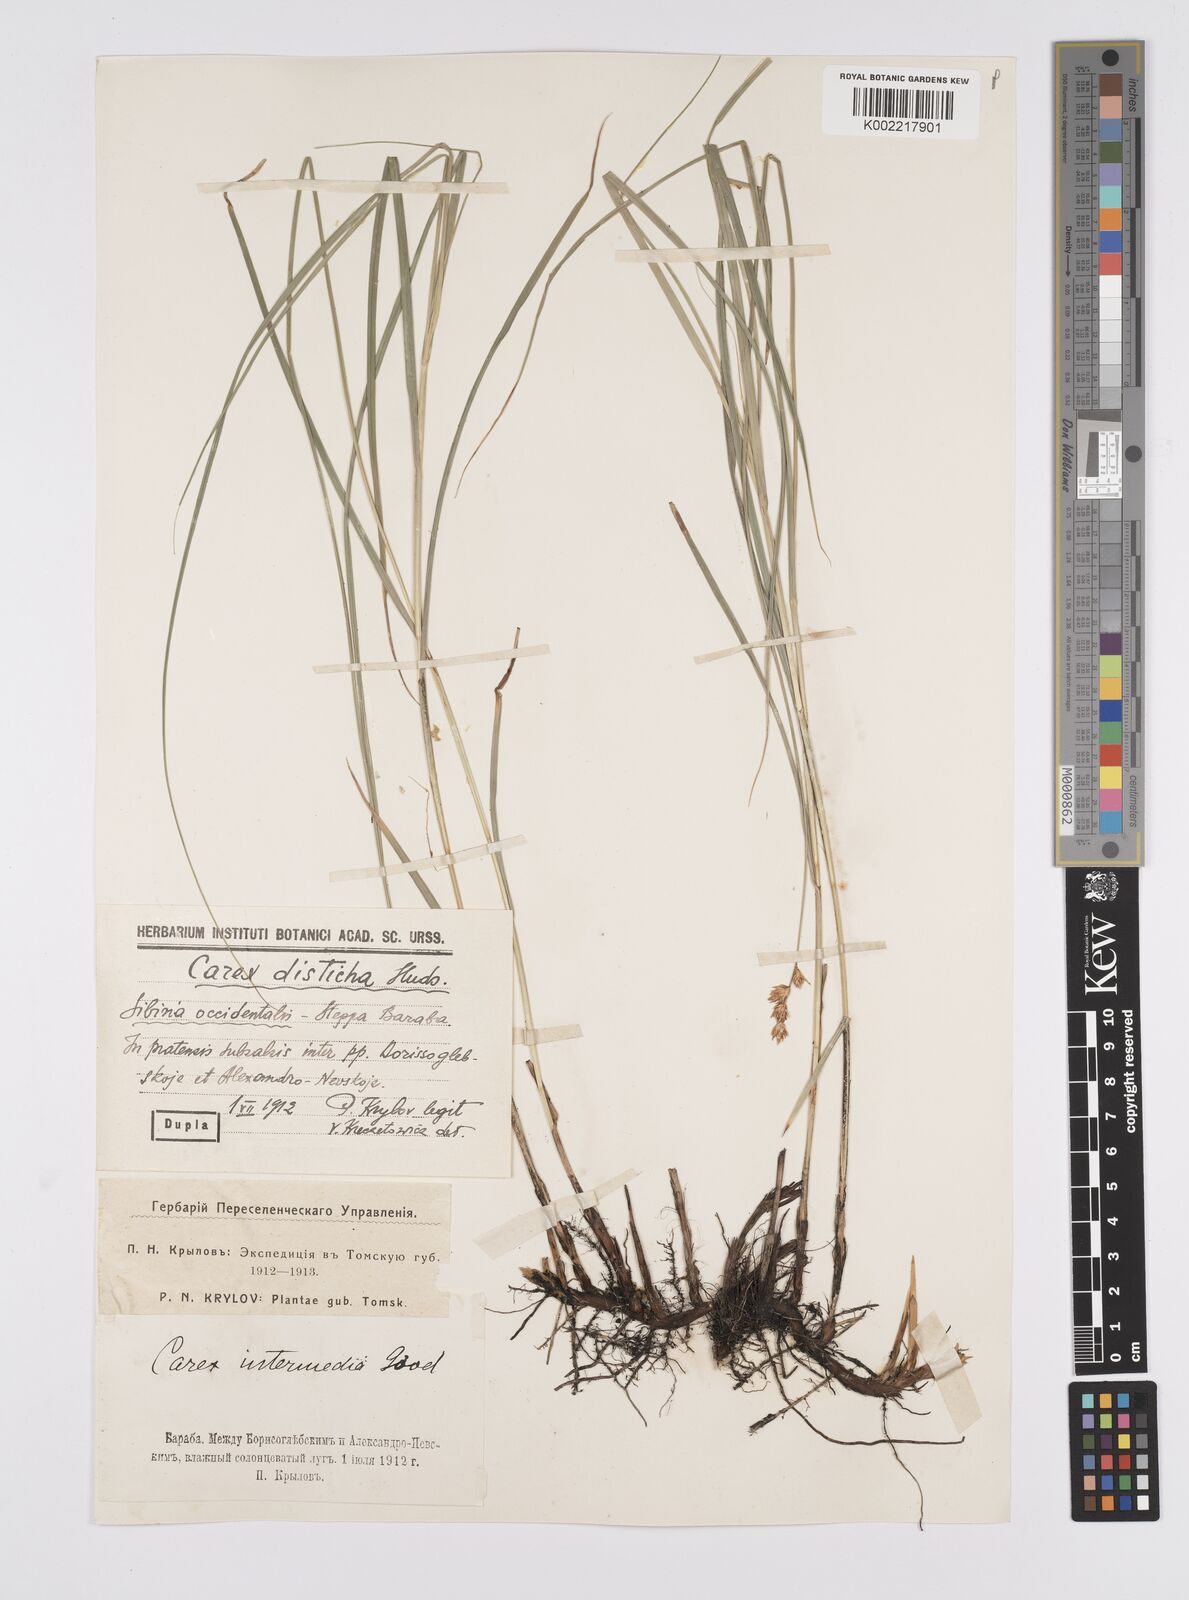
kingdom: Plantae
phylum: Tracheophyta
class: Liliopsida
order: Poales
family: Cyperaceae
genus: Carex
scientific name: Carex disticha
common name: Brown sedge
